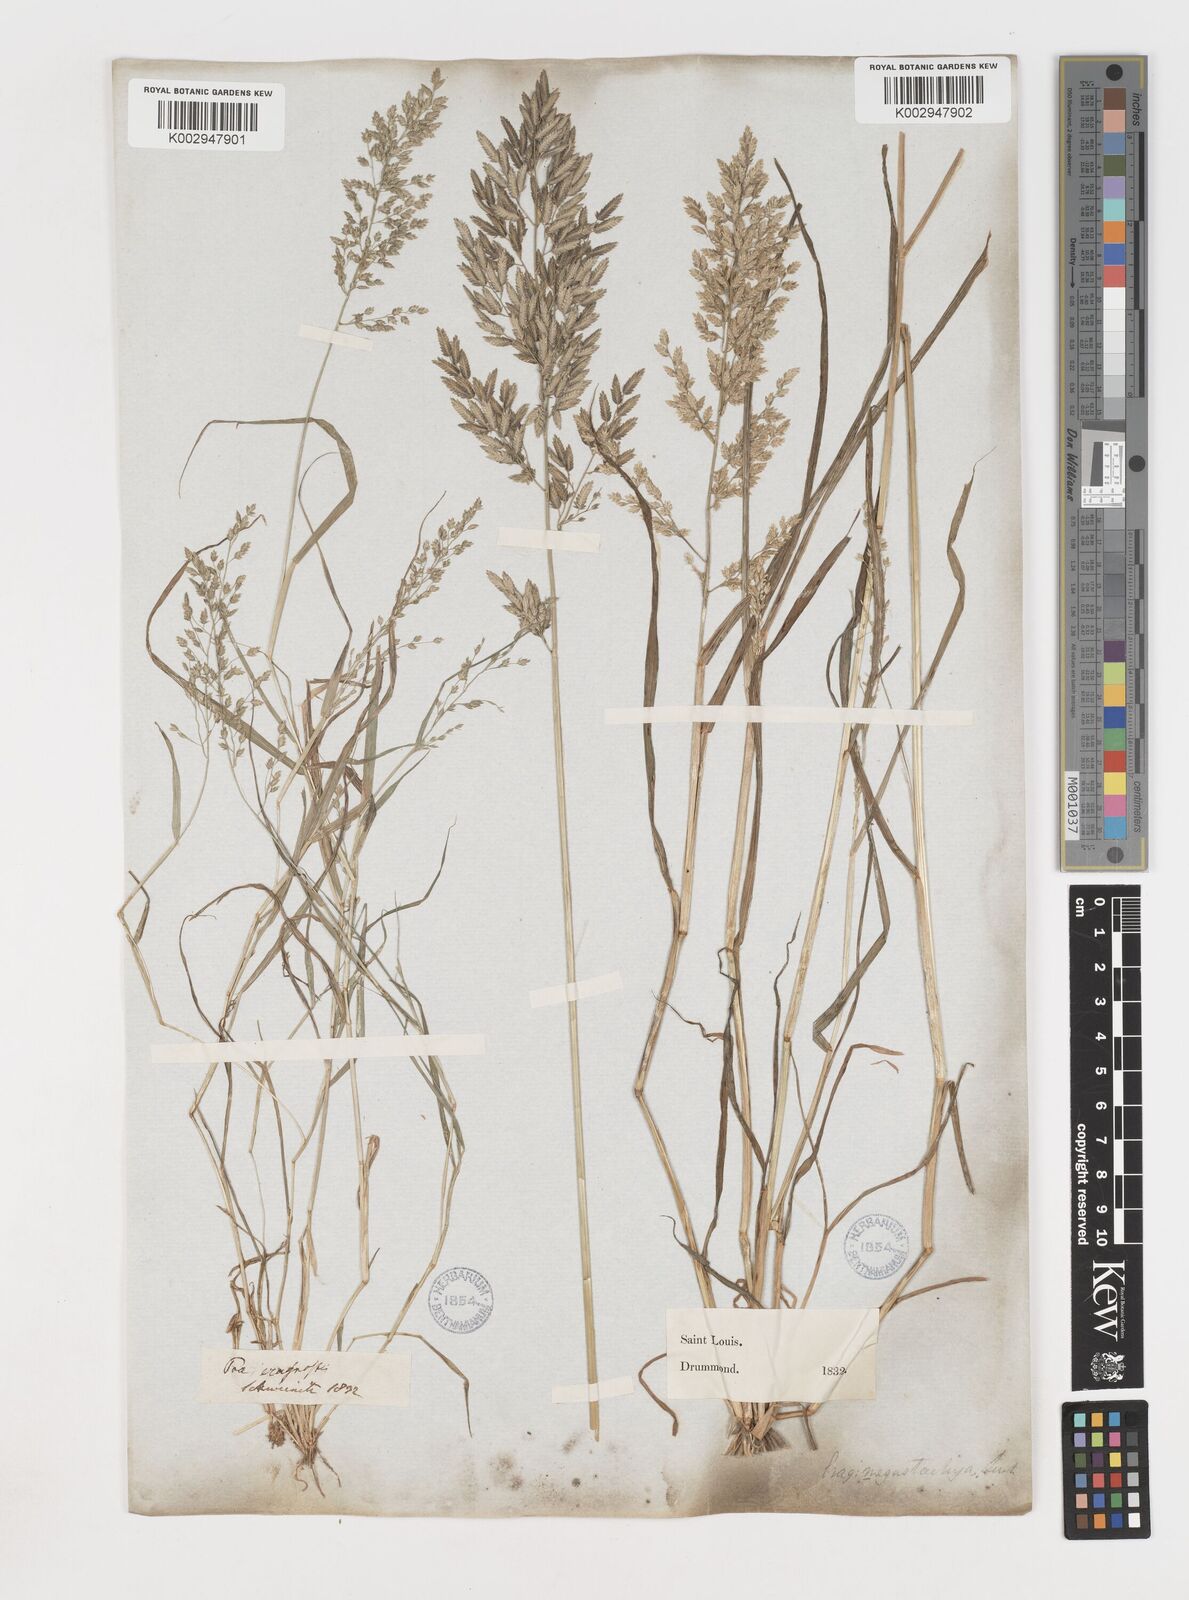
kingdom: Plantae
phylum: Tracheophyta
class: Liliopsida
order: Poales
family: Poaceae
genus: Eragrostis
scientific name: Eragrostis
